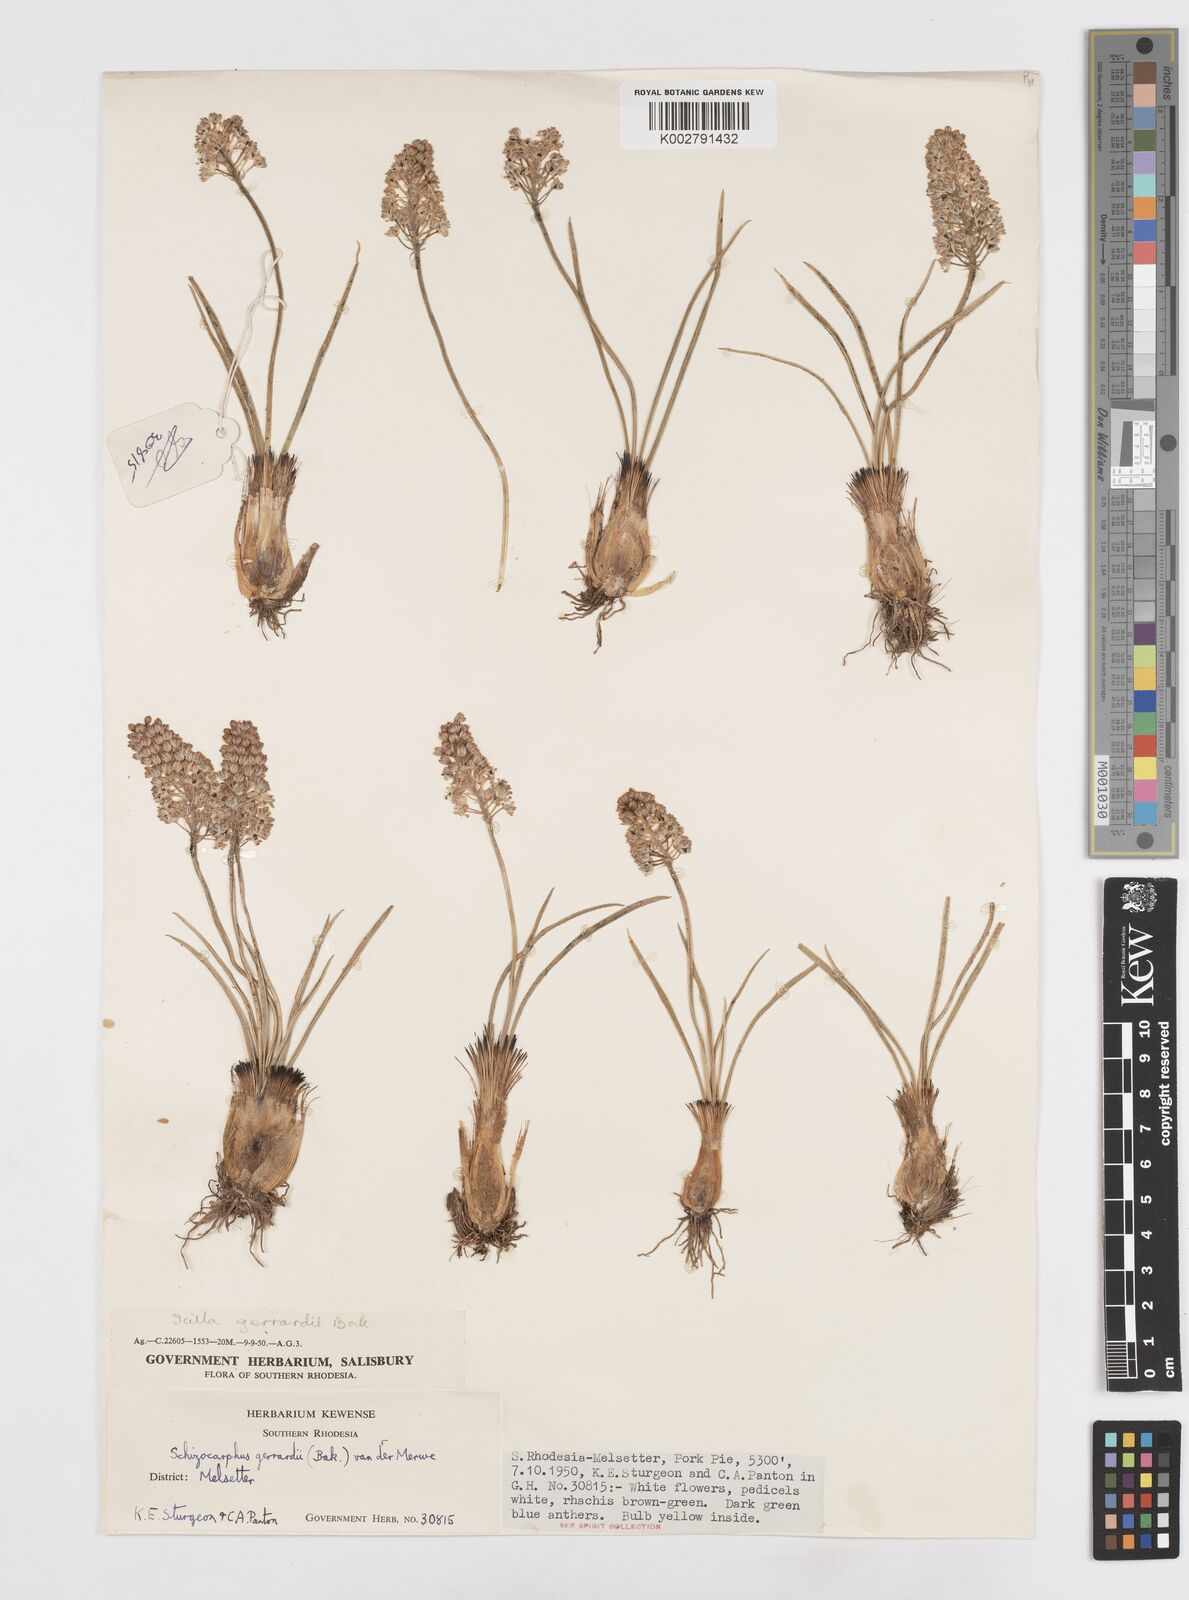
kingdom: Plantae
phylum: Tracheophyta
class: Liliopsida
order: Asparagales
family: Asparagaceae
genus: Schizocarphus
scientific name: Schizocarphus nervosus
